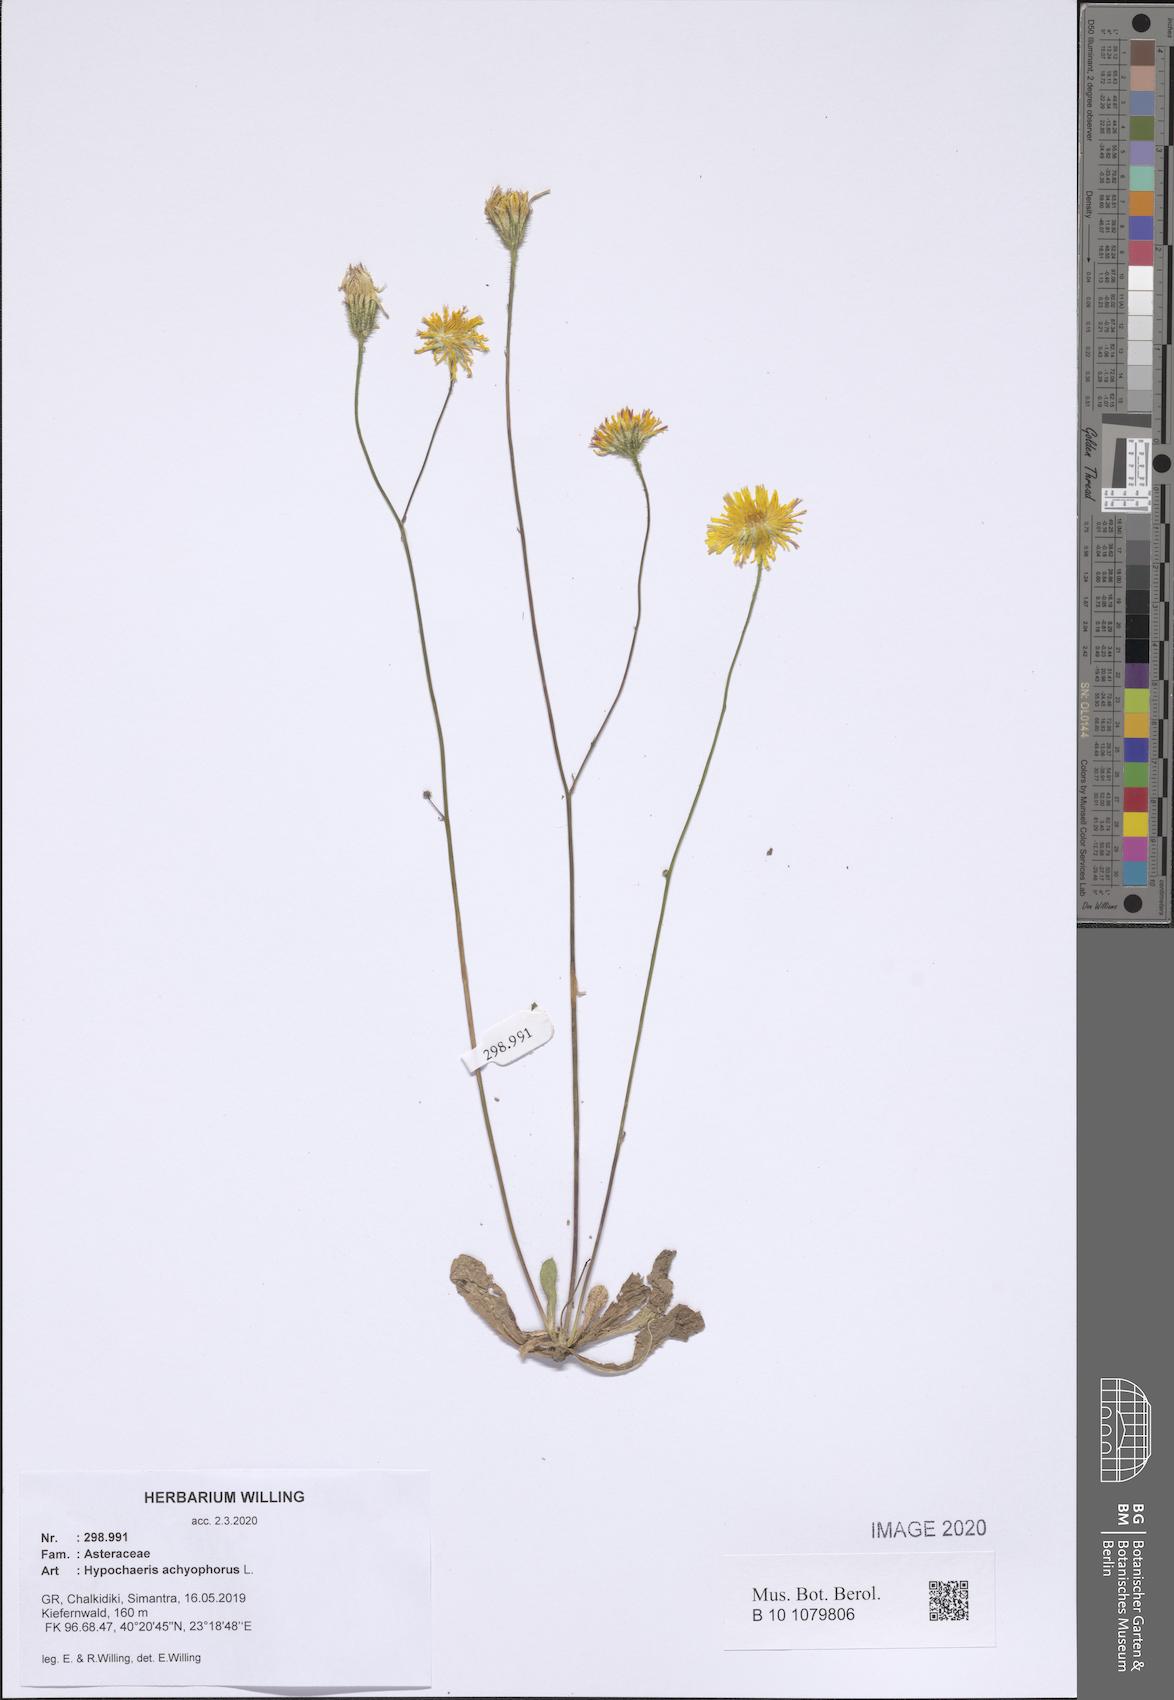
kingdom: Plantae
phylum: Tracheophyta
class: Magnoliopsida
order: Asterales
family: Asteraceae
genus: Achyrophorus
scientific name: Achyrophorus valdesii
